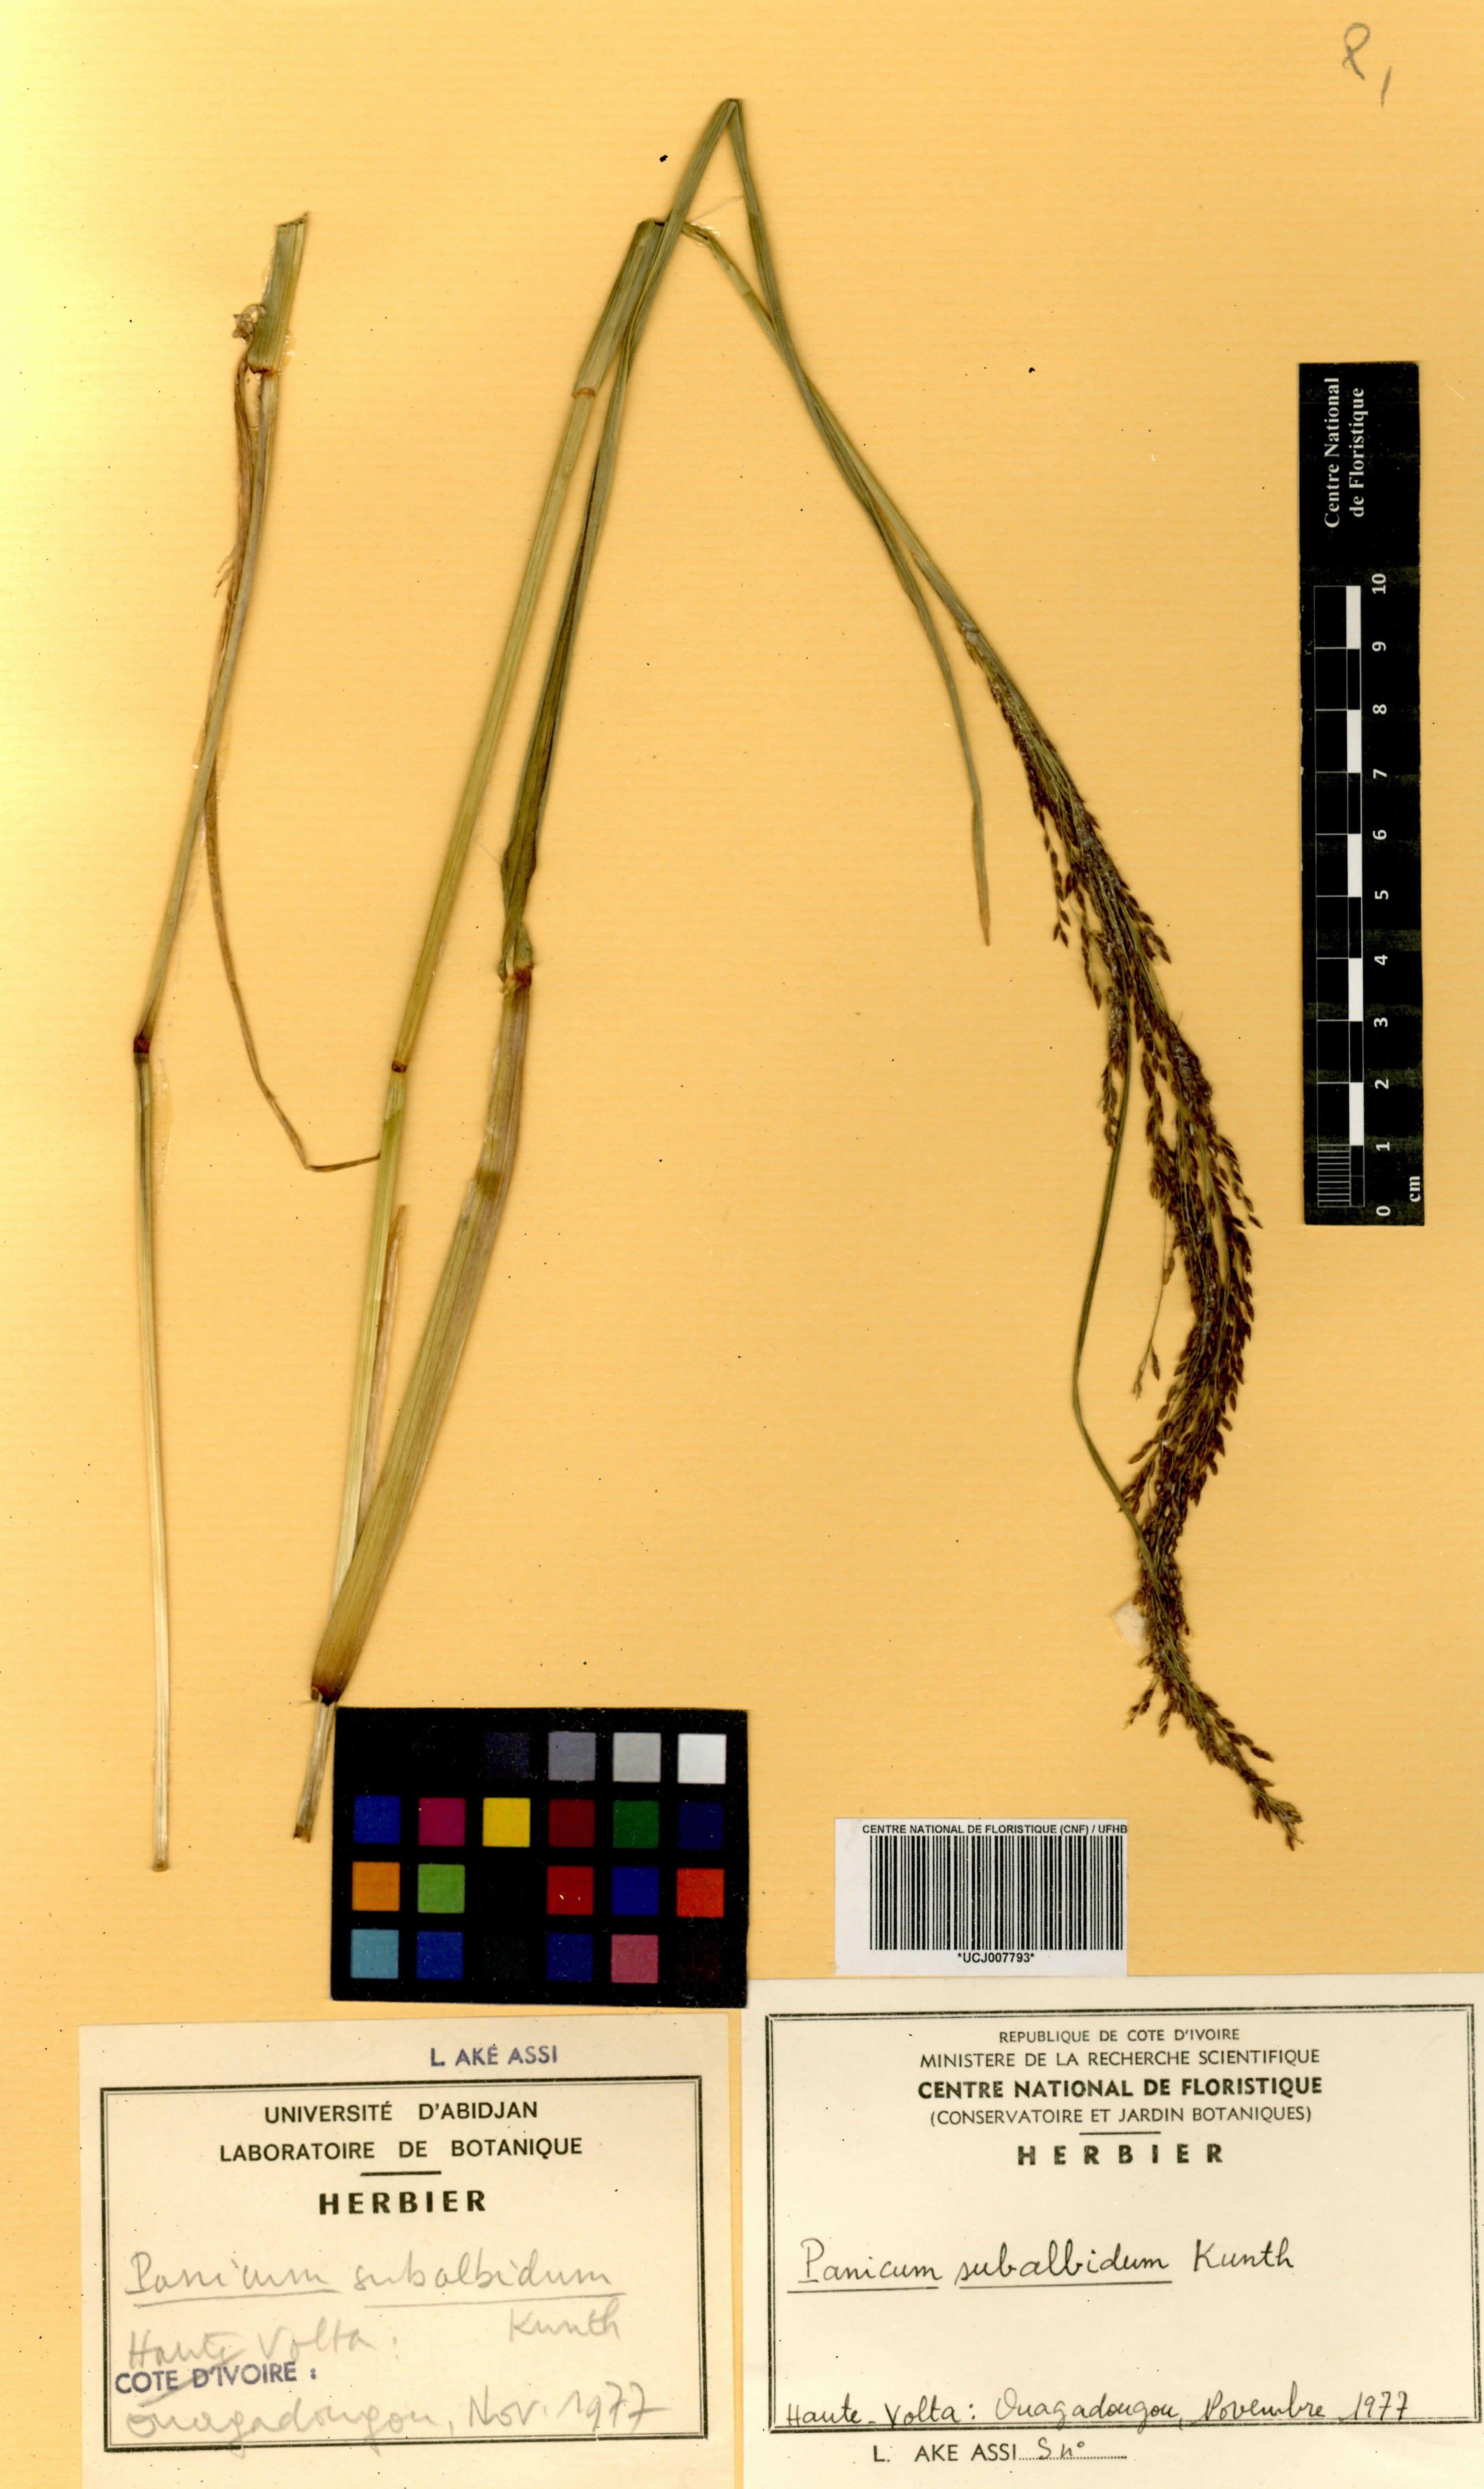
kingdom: Plantae
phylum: Tracheophyta
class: Liliopsida
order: Poales
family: Poaceae
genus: Panicum
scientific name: Panicum subalbidum
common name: Elbow buffalo grass
